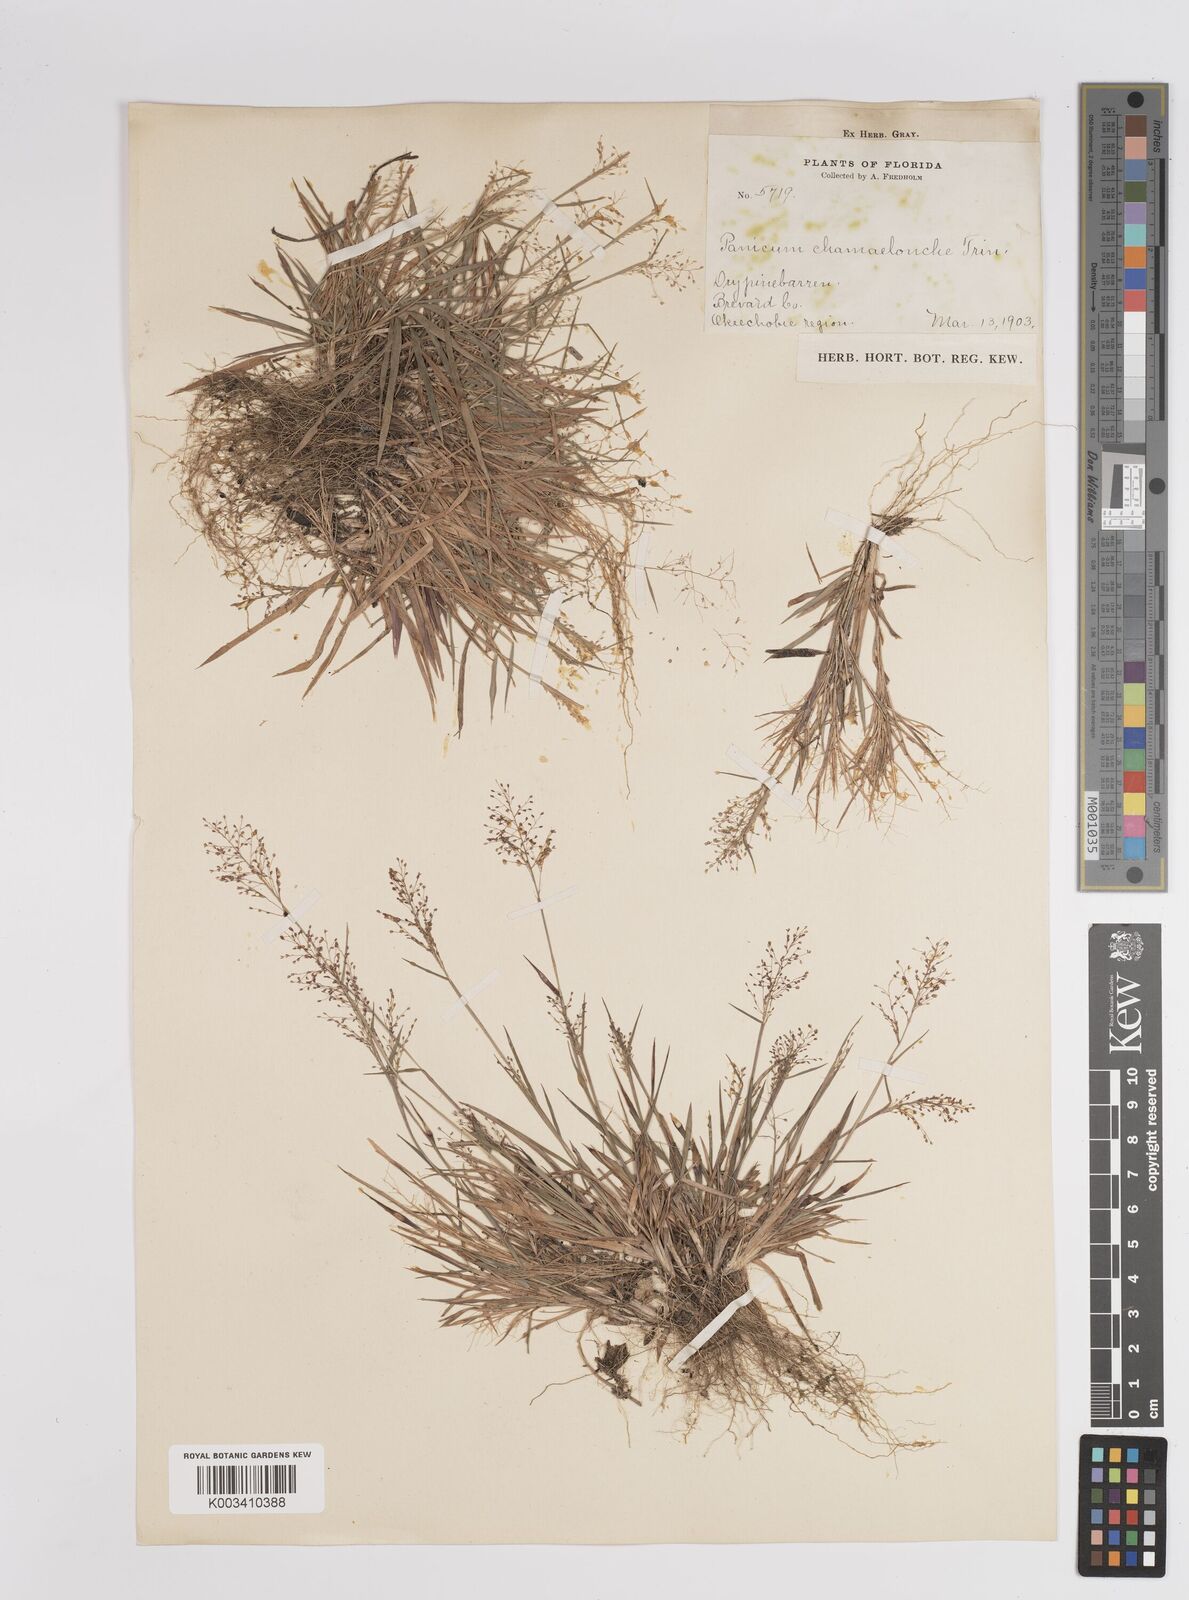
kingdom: Plantae
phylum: Tracheophyta
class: Liliopsida
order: Poales
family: Poaceae
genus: Dichanthelium
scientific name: Dichanthelium chamaelonche
